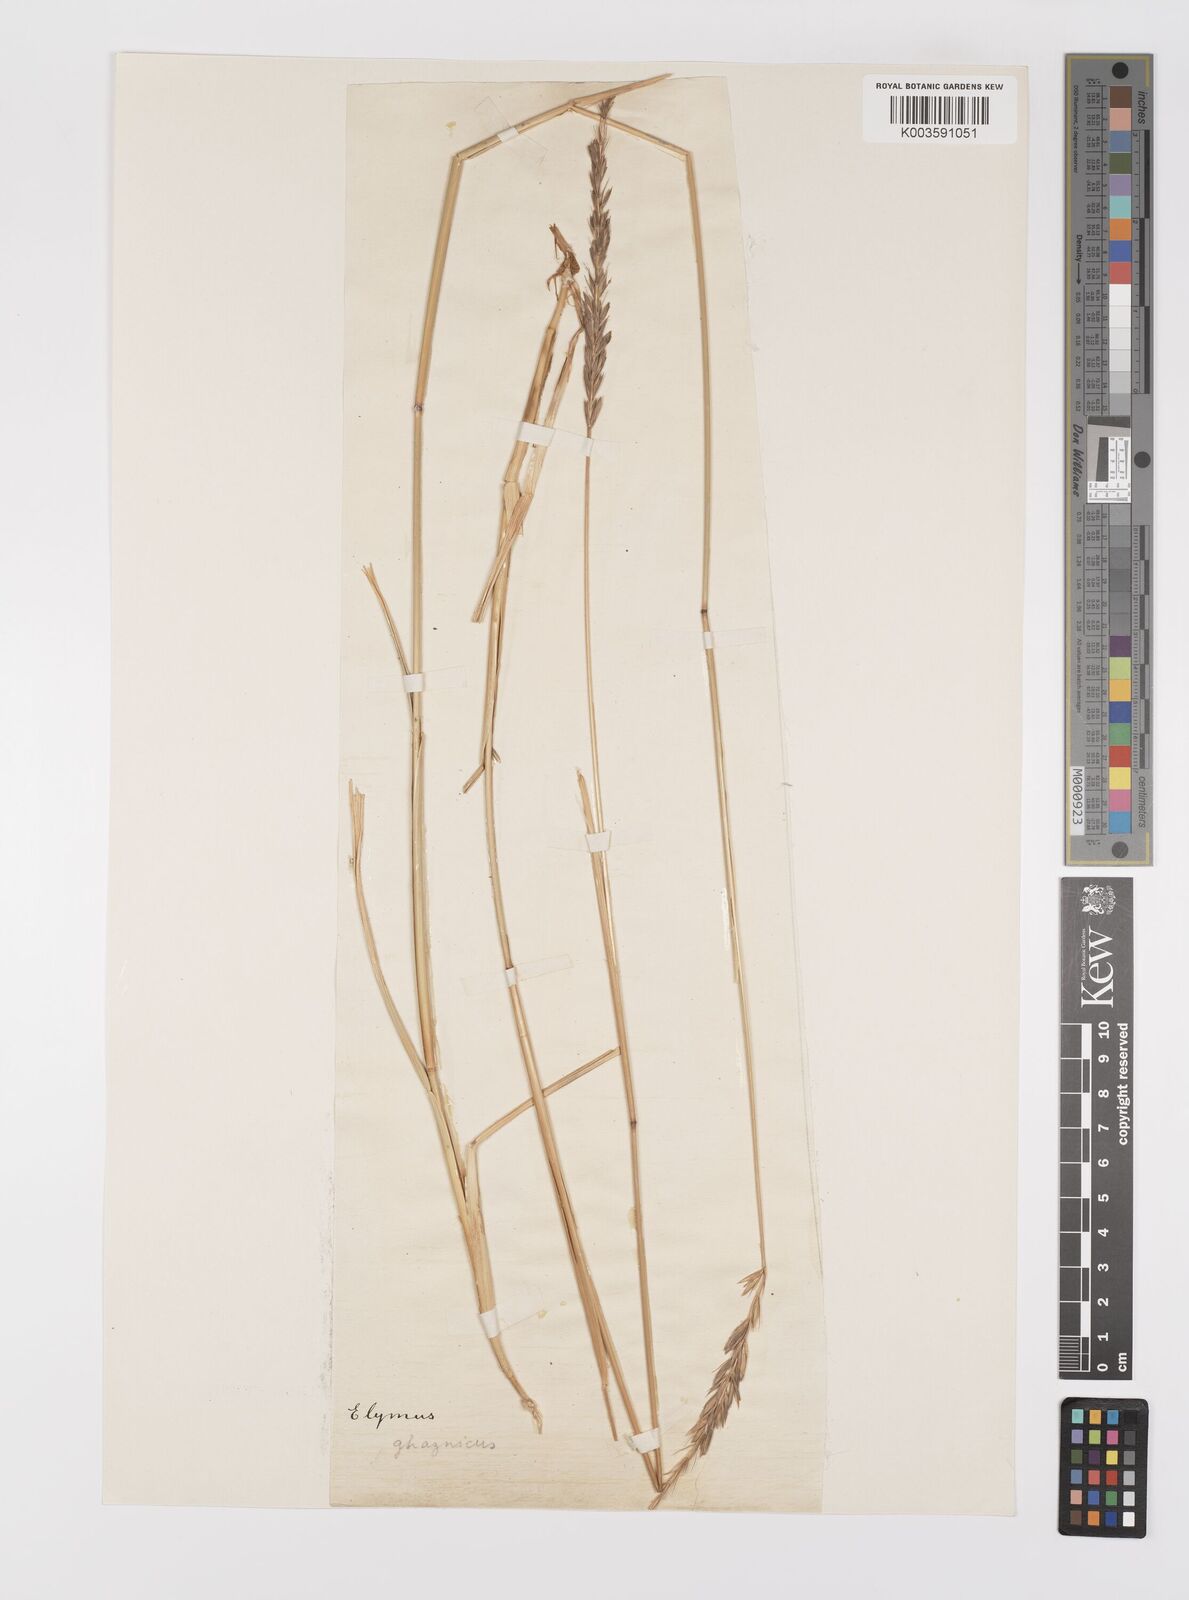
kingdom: Plantae
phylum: Tracheophyta
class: Liliopsida
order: Poales
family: Poaceae
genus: Leymus
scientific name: Leymus
